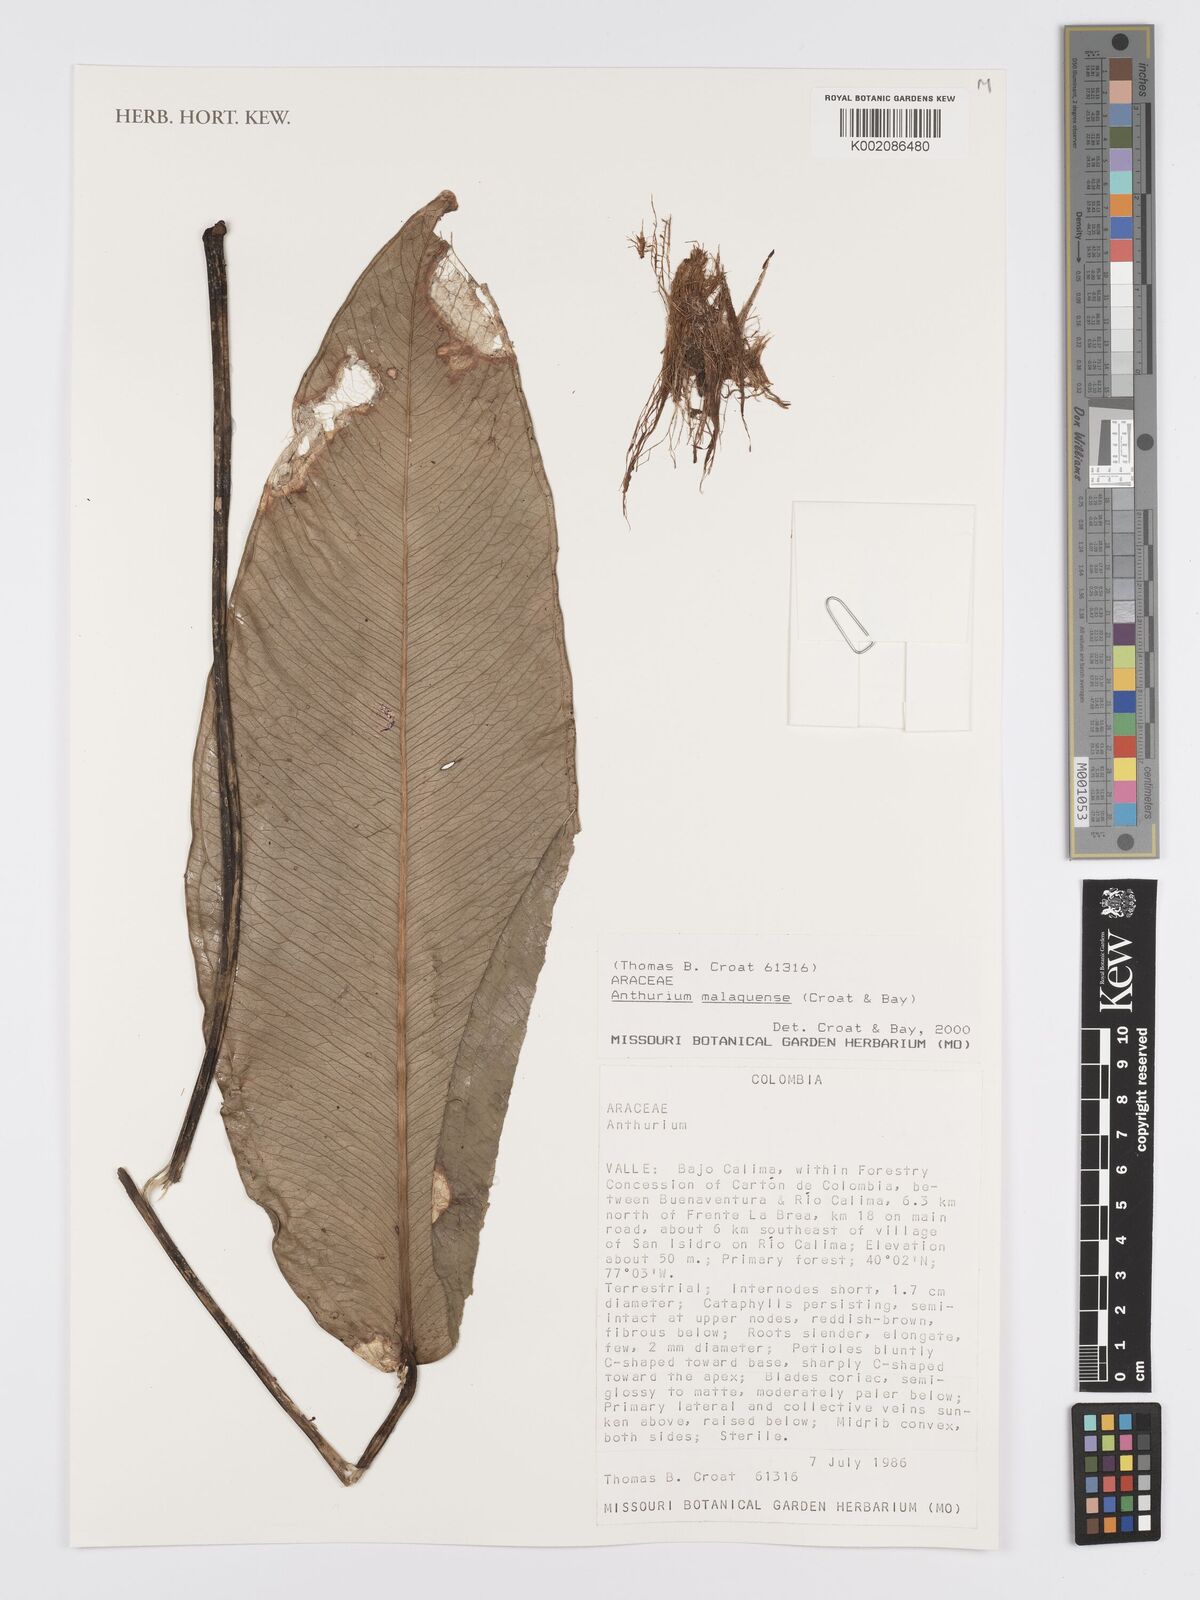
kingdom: Plantae
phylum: Tracheophyta
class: Liliopsida
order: Alismatales
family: Araceae
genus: Anthurium
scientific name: Anthurium
